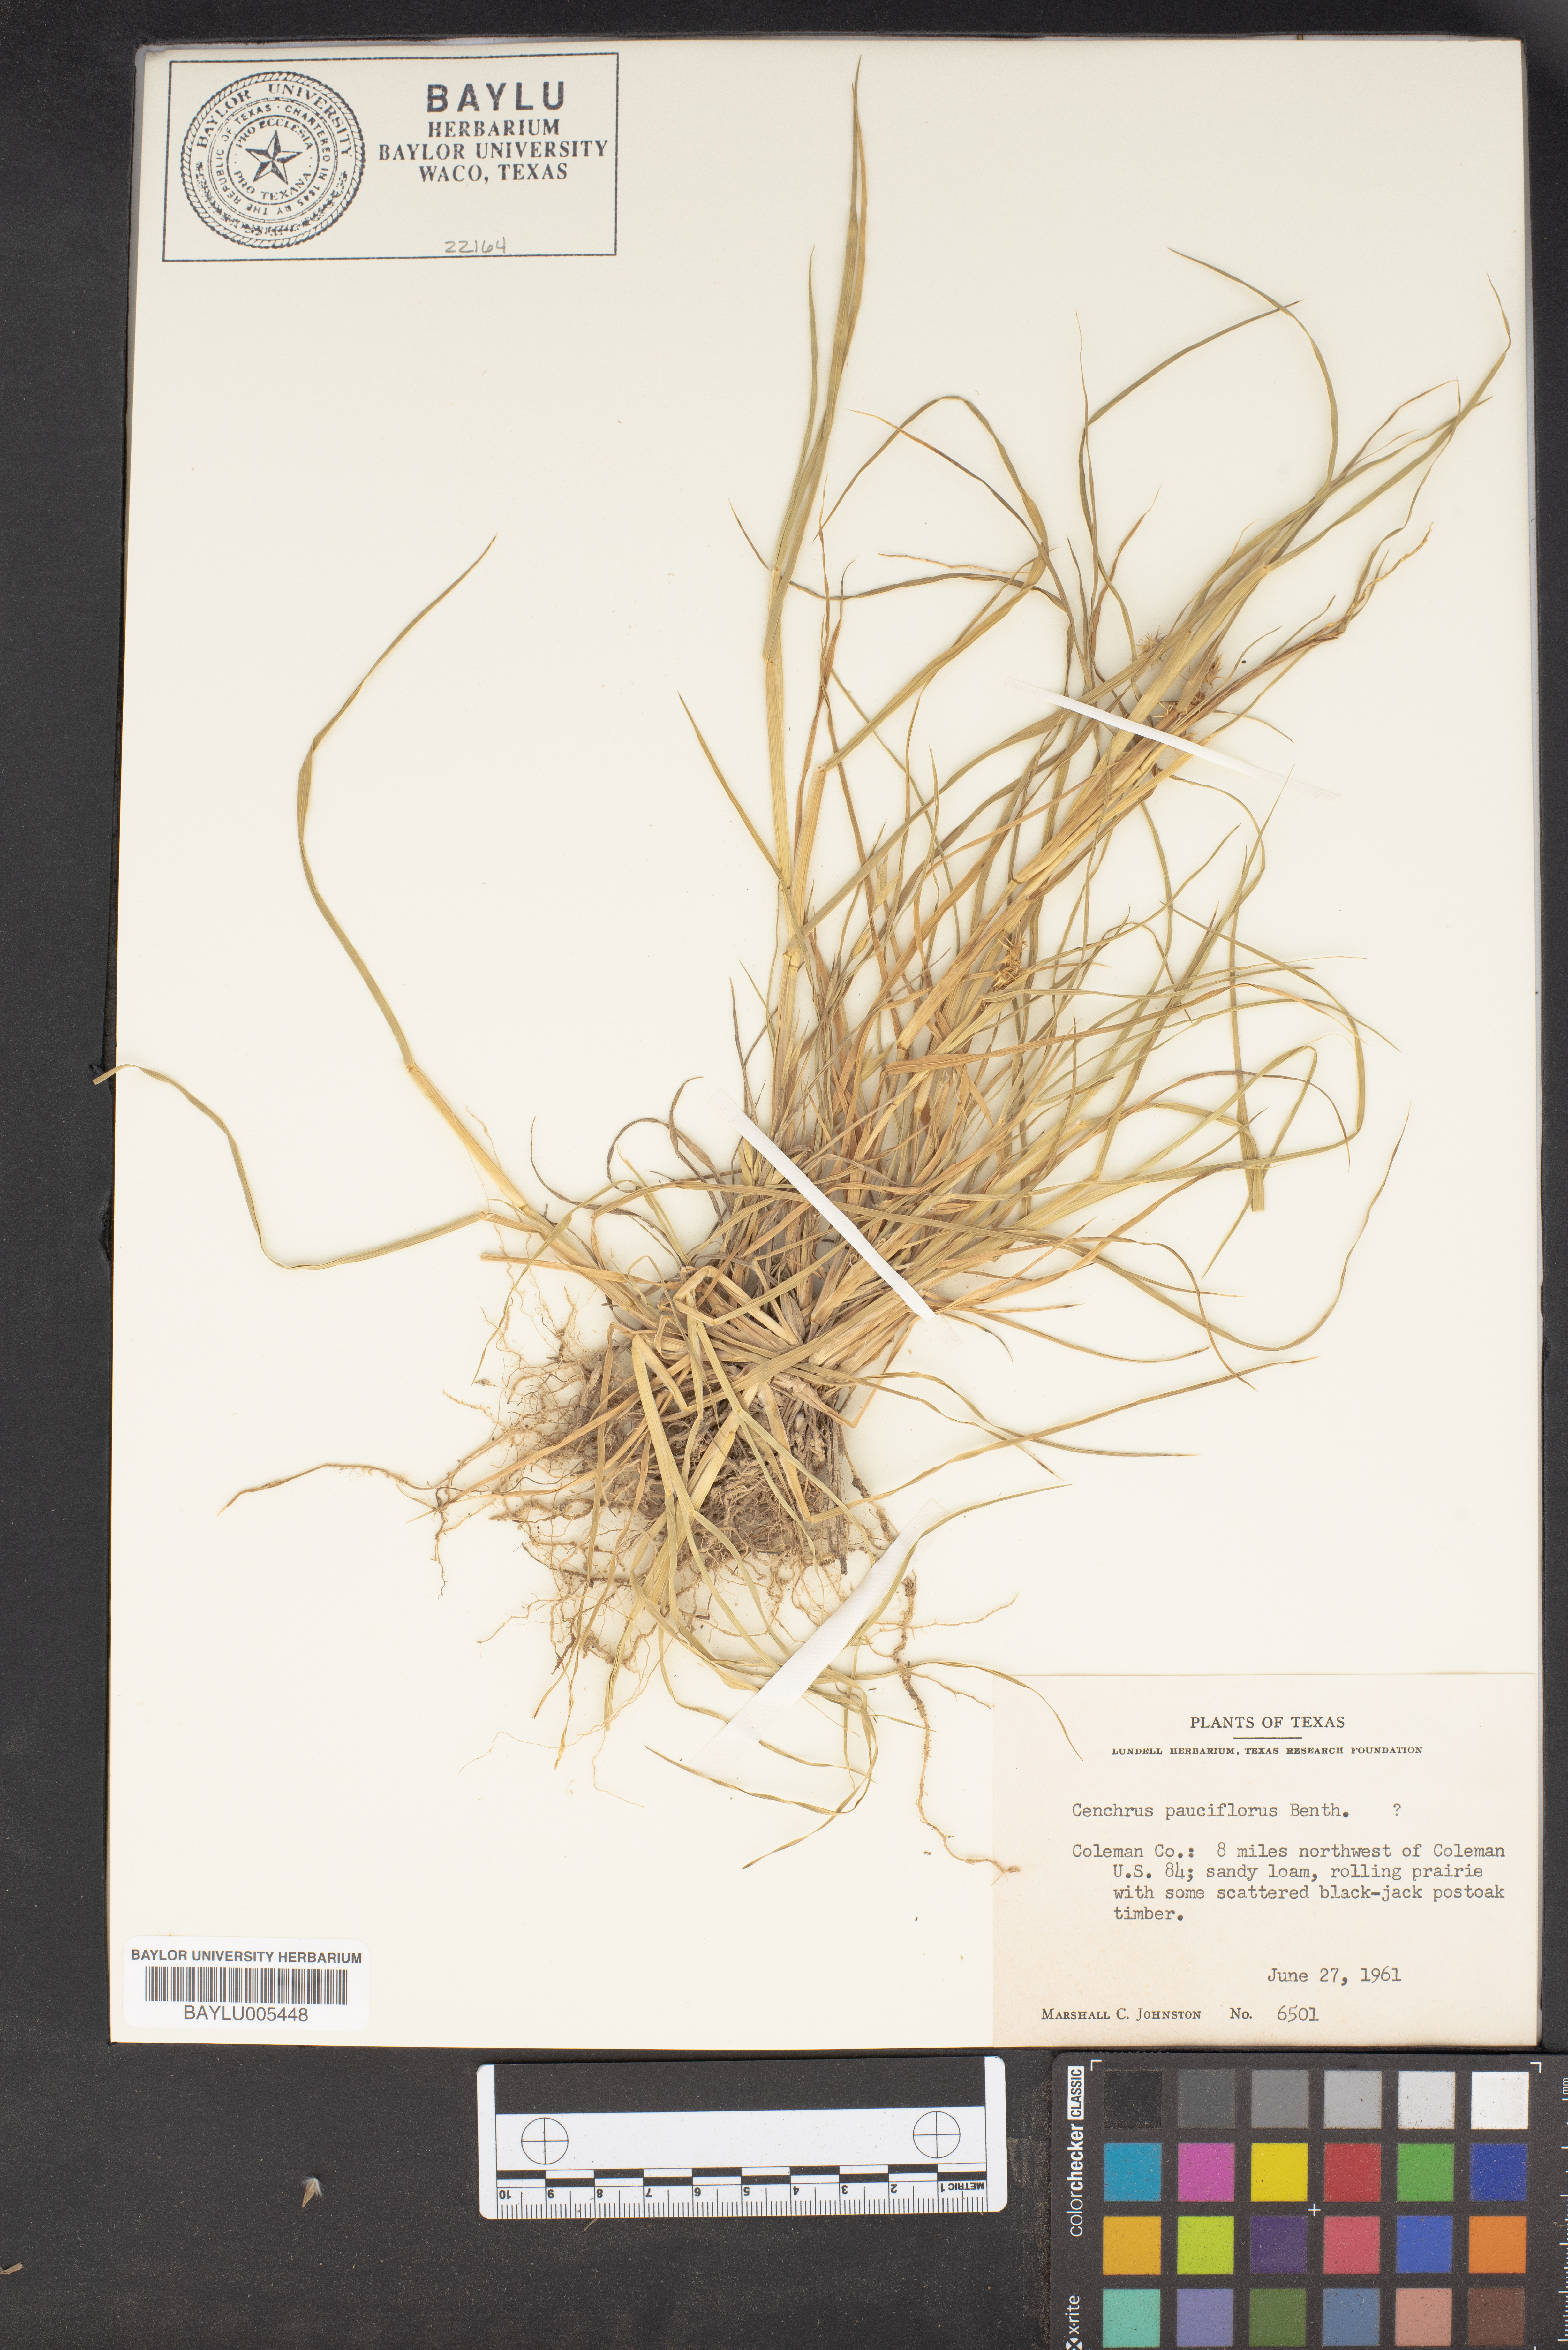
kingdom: Plantae
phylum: Tracheophyta
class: Liliopsida
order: Poales
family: Poaceae
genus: Cenchrus
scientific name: Cenchrus spinifex
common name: Coast sandbur
